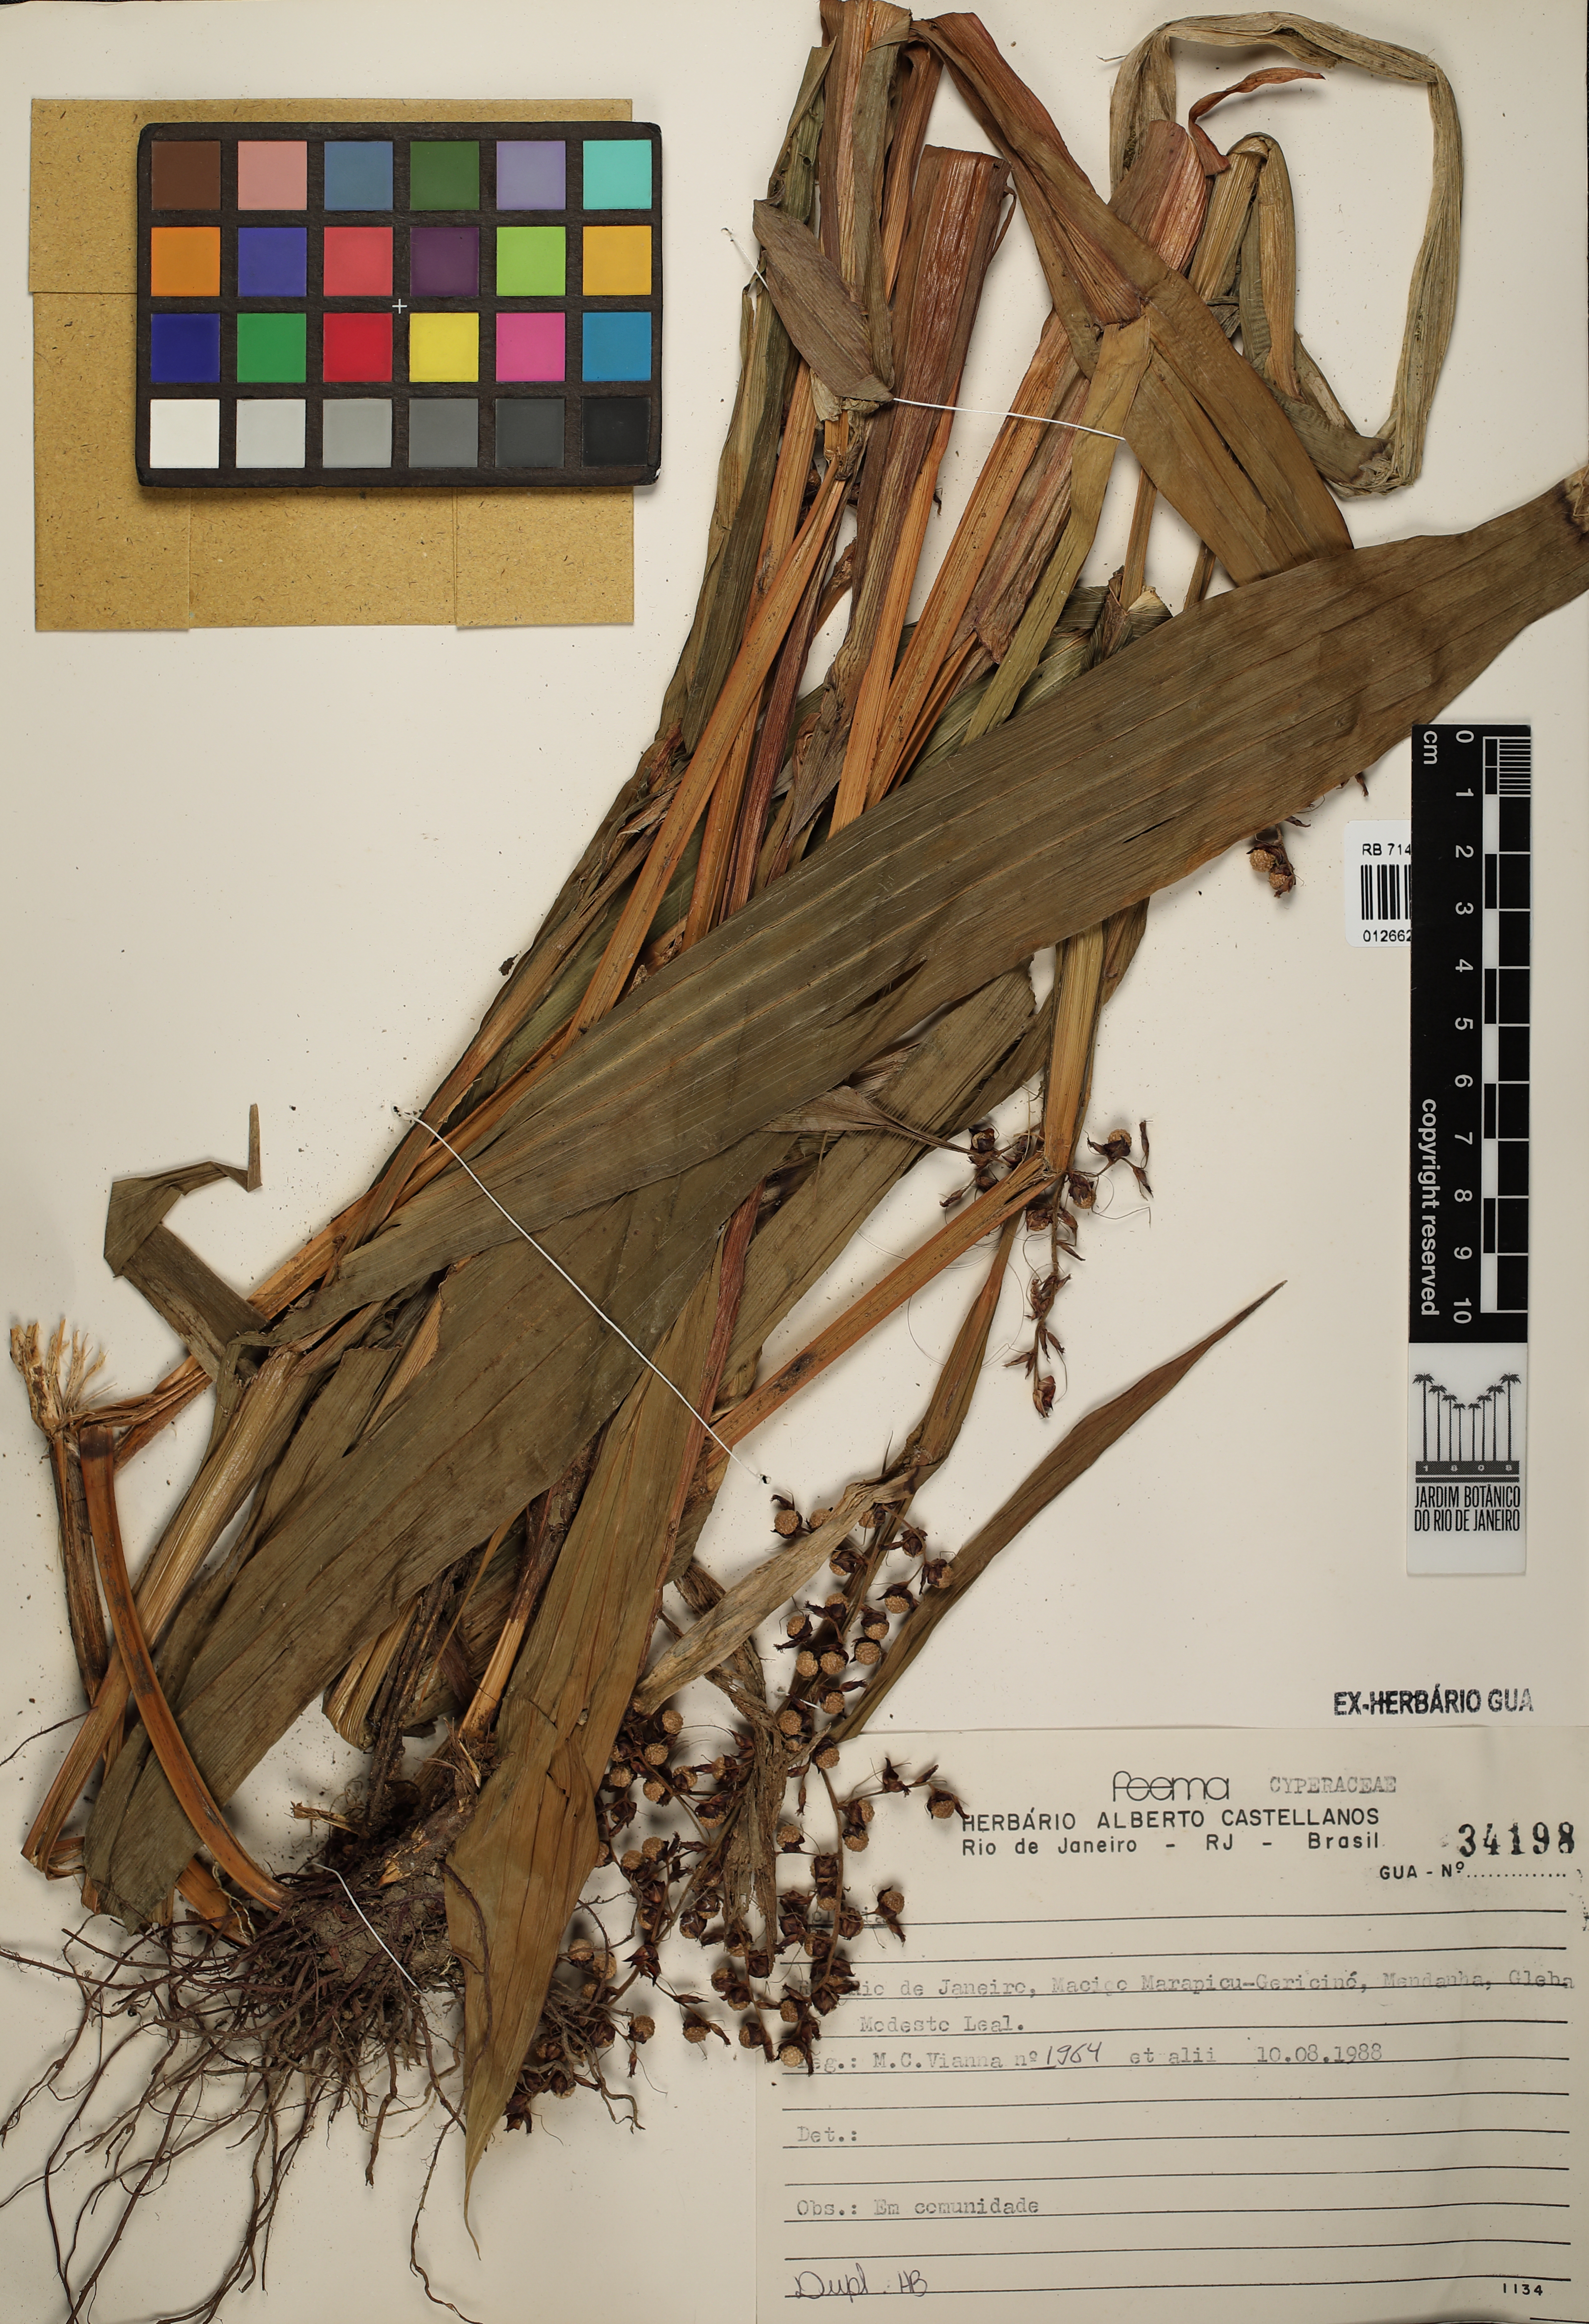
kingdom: Plantae
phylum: Tracheophyta
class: Liliopsida
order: Poales
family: Cyperaceae
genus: Scleria
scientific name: Scleria
